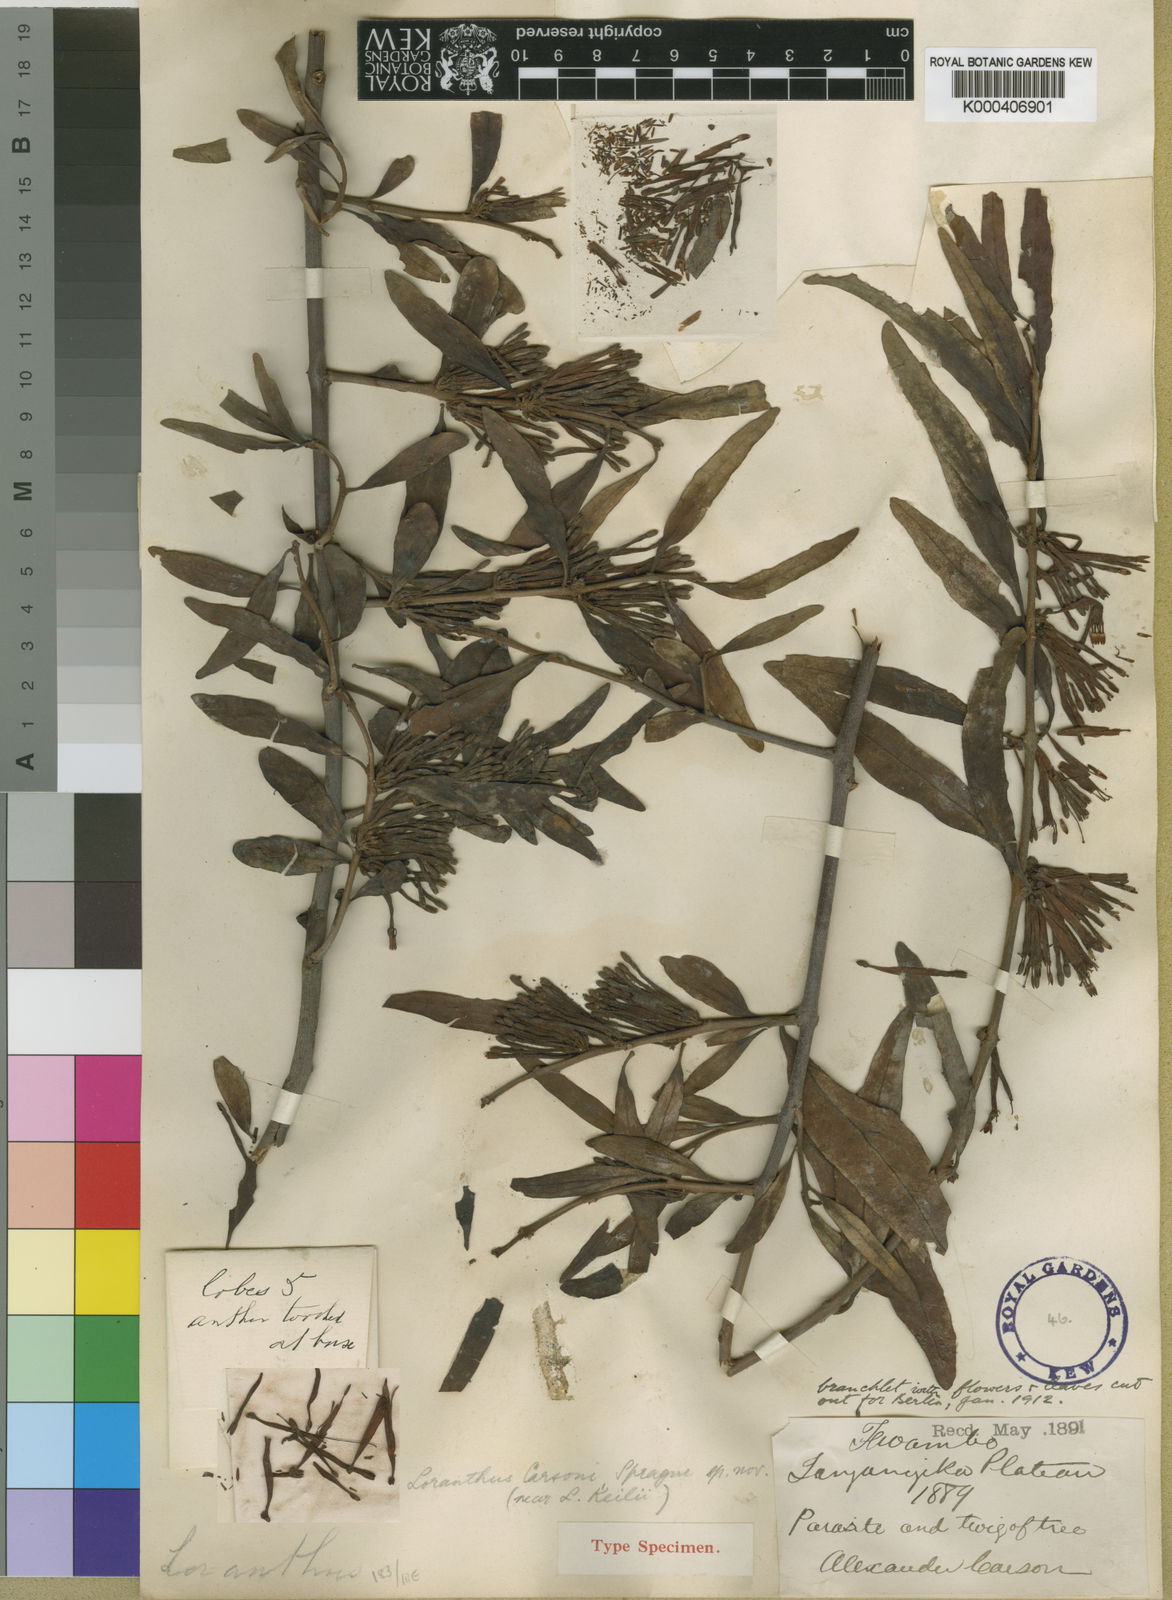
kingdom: Plantae
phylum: Tracheophyta
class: Magnoliopsida
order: Santalales
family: Loranthaceae
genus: Agelanthus
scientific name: Agelanthus pungu
